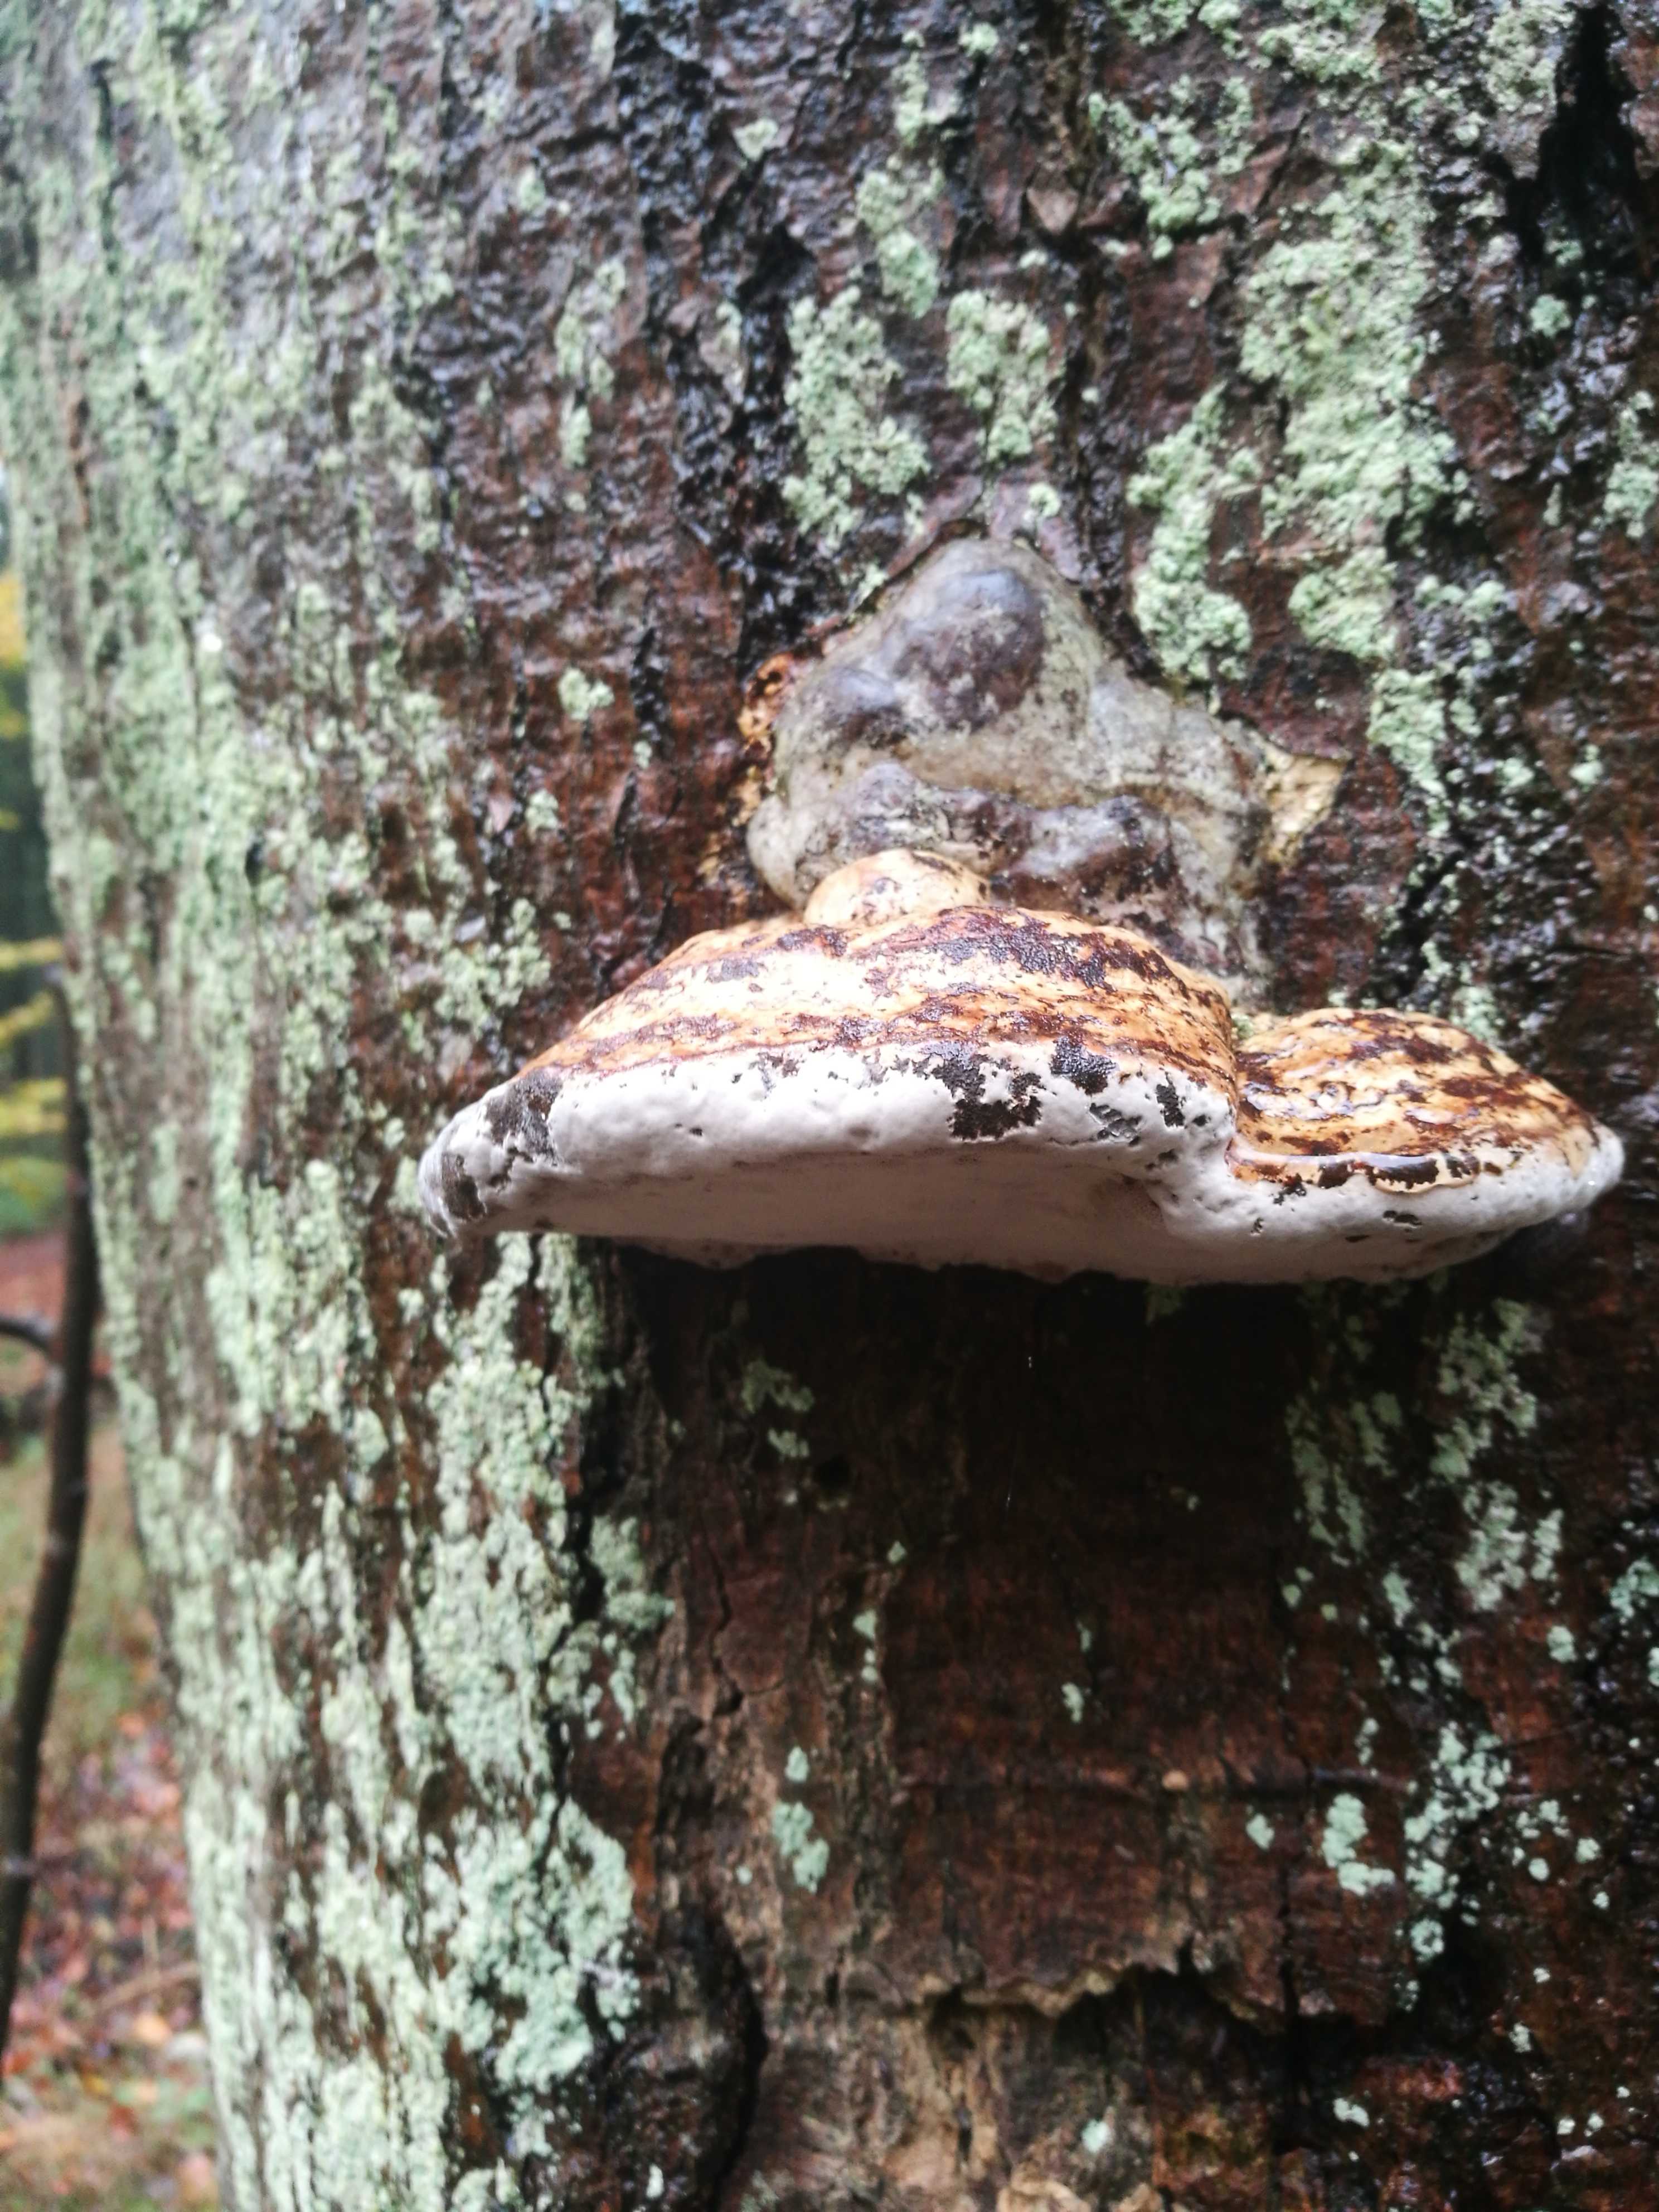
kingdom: Fungi
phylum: Basidiomycota
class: Agaricomycetes
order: Polyporales
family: Polyporaceae
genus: Fomes
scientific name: Fomes fomentarius
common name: tøndersvamp
